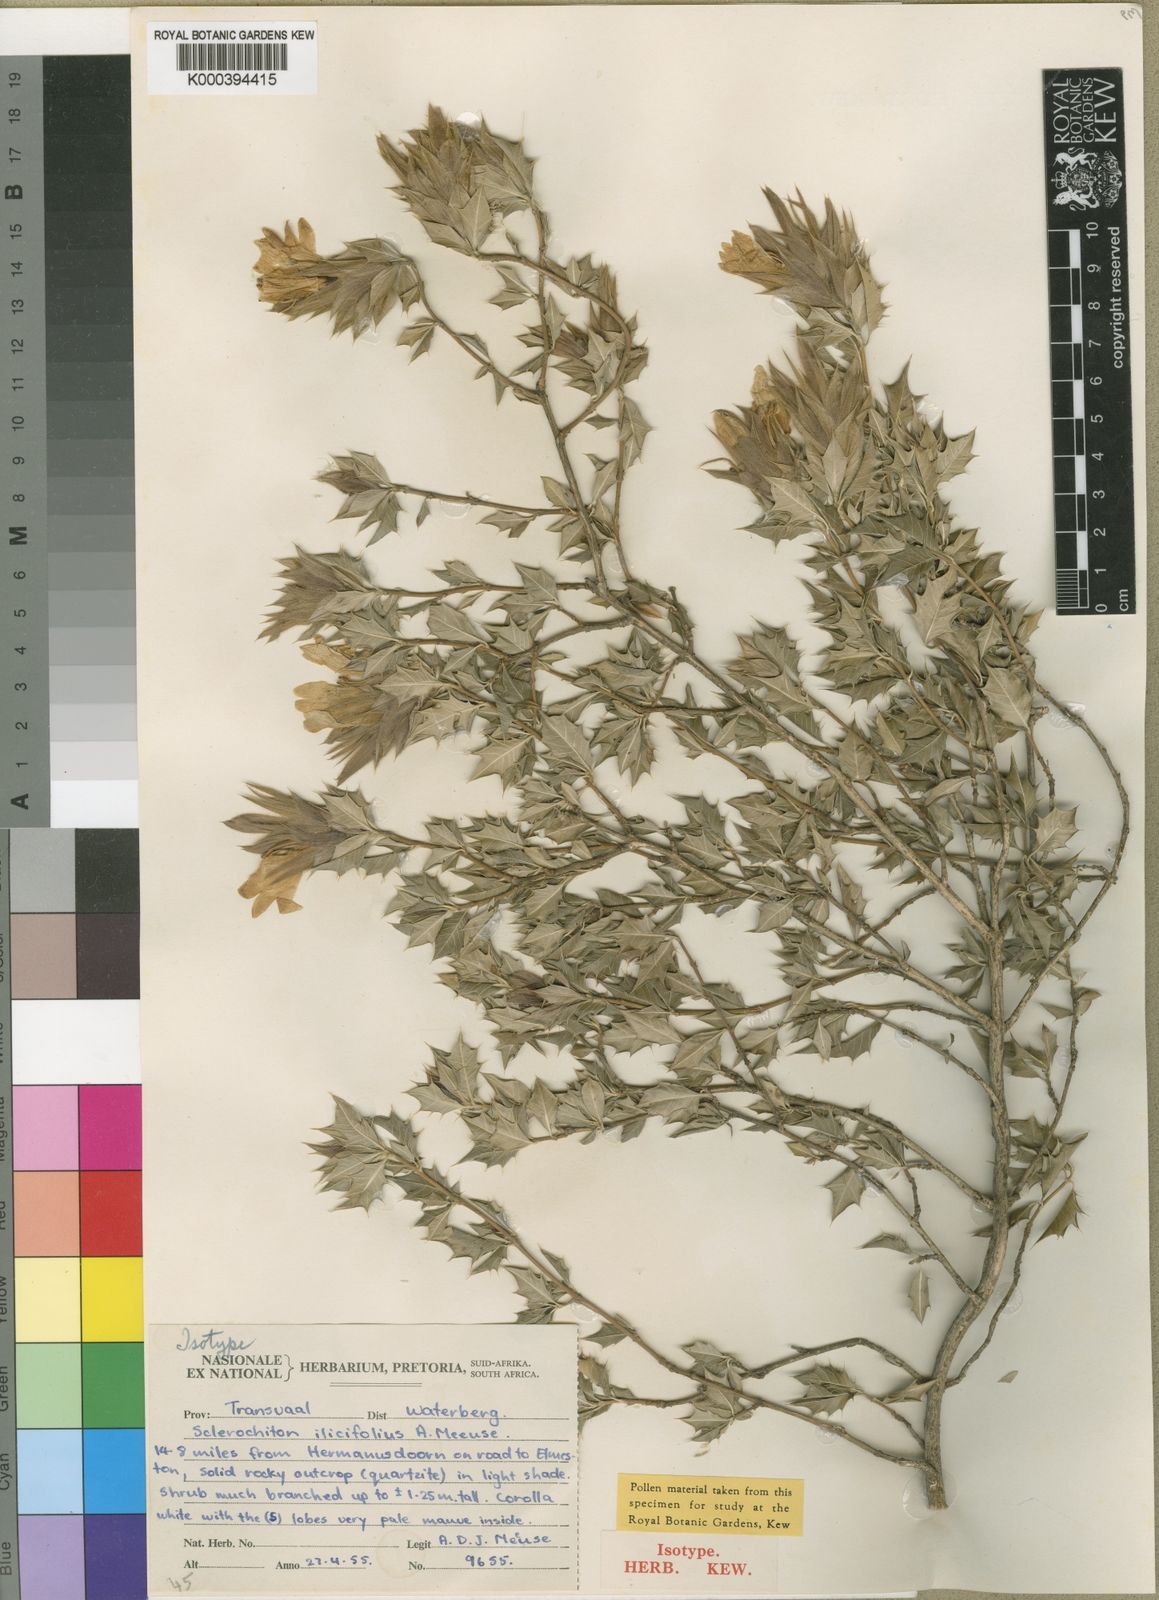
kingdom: Plantae
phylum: Tracheophyta
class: Magnoliopsida
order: Lamiales
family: Acanthaceae
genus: Sclerochiton
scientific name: Sclerochiton ilicifolius
